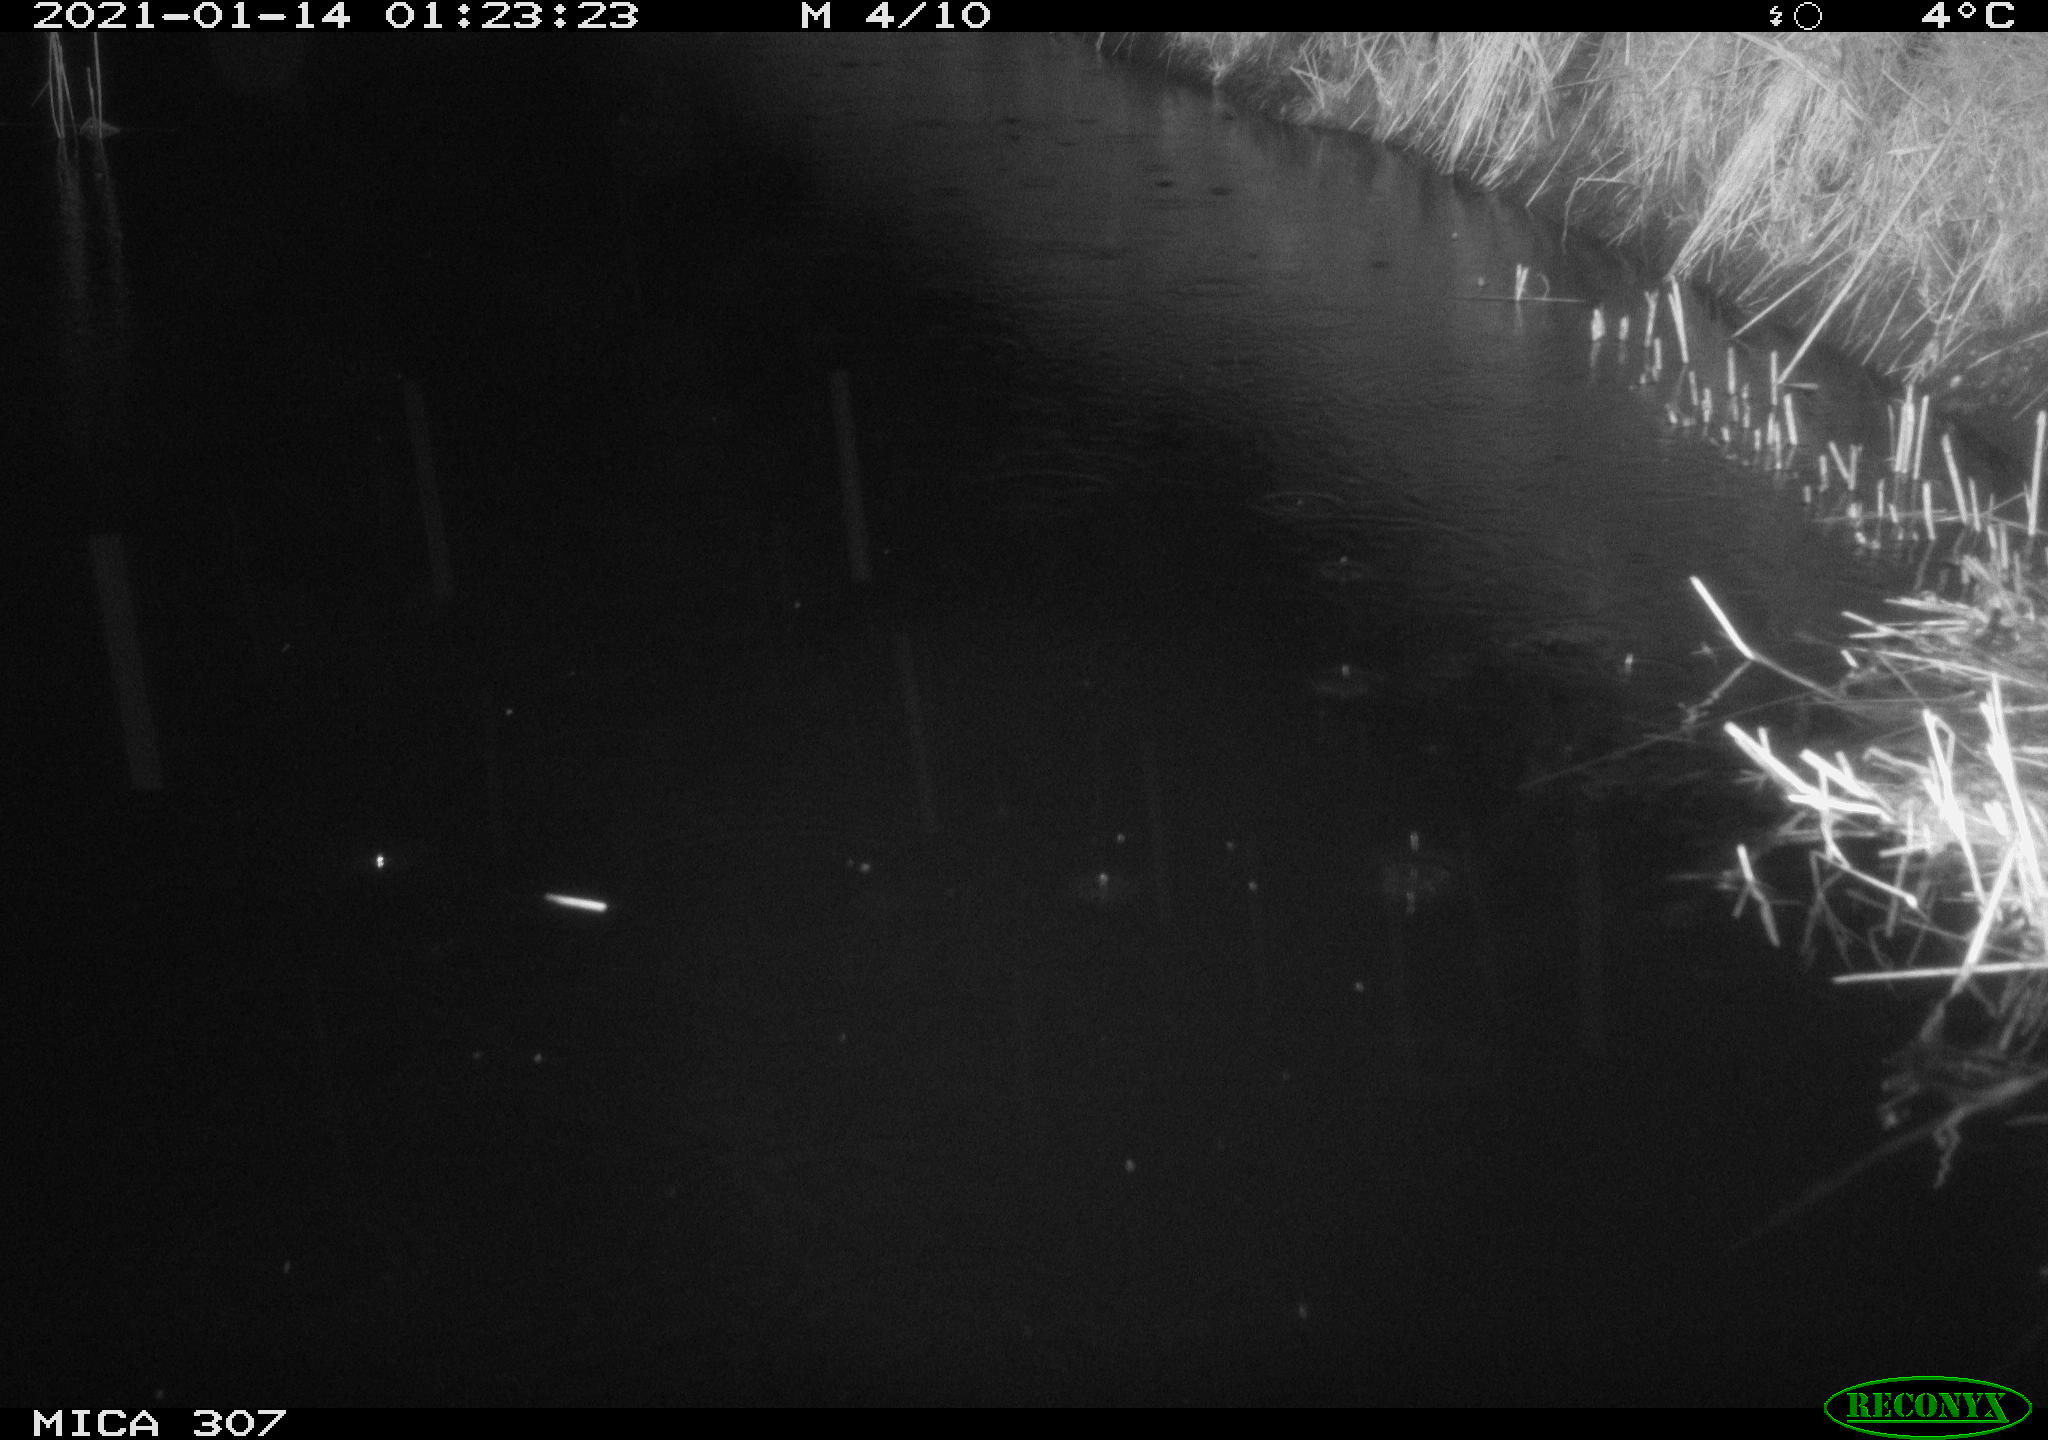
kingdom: Animalia
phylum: Chordata
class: Mammalia
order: Rodentia
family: Muridae
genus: Rattus
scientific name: Rattus norvegicus
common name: Brown rat
